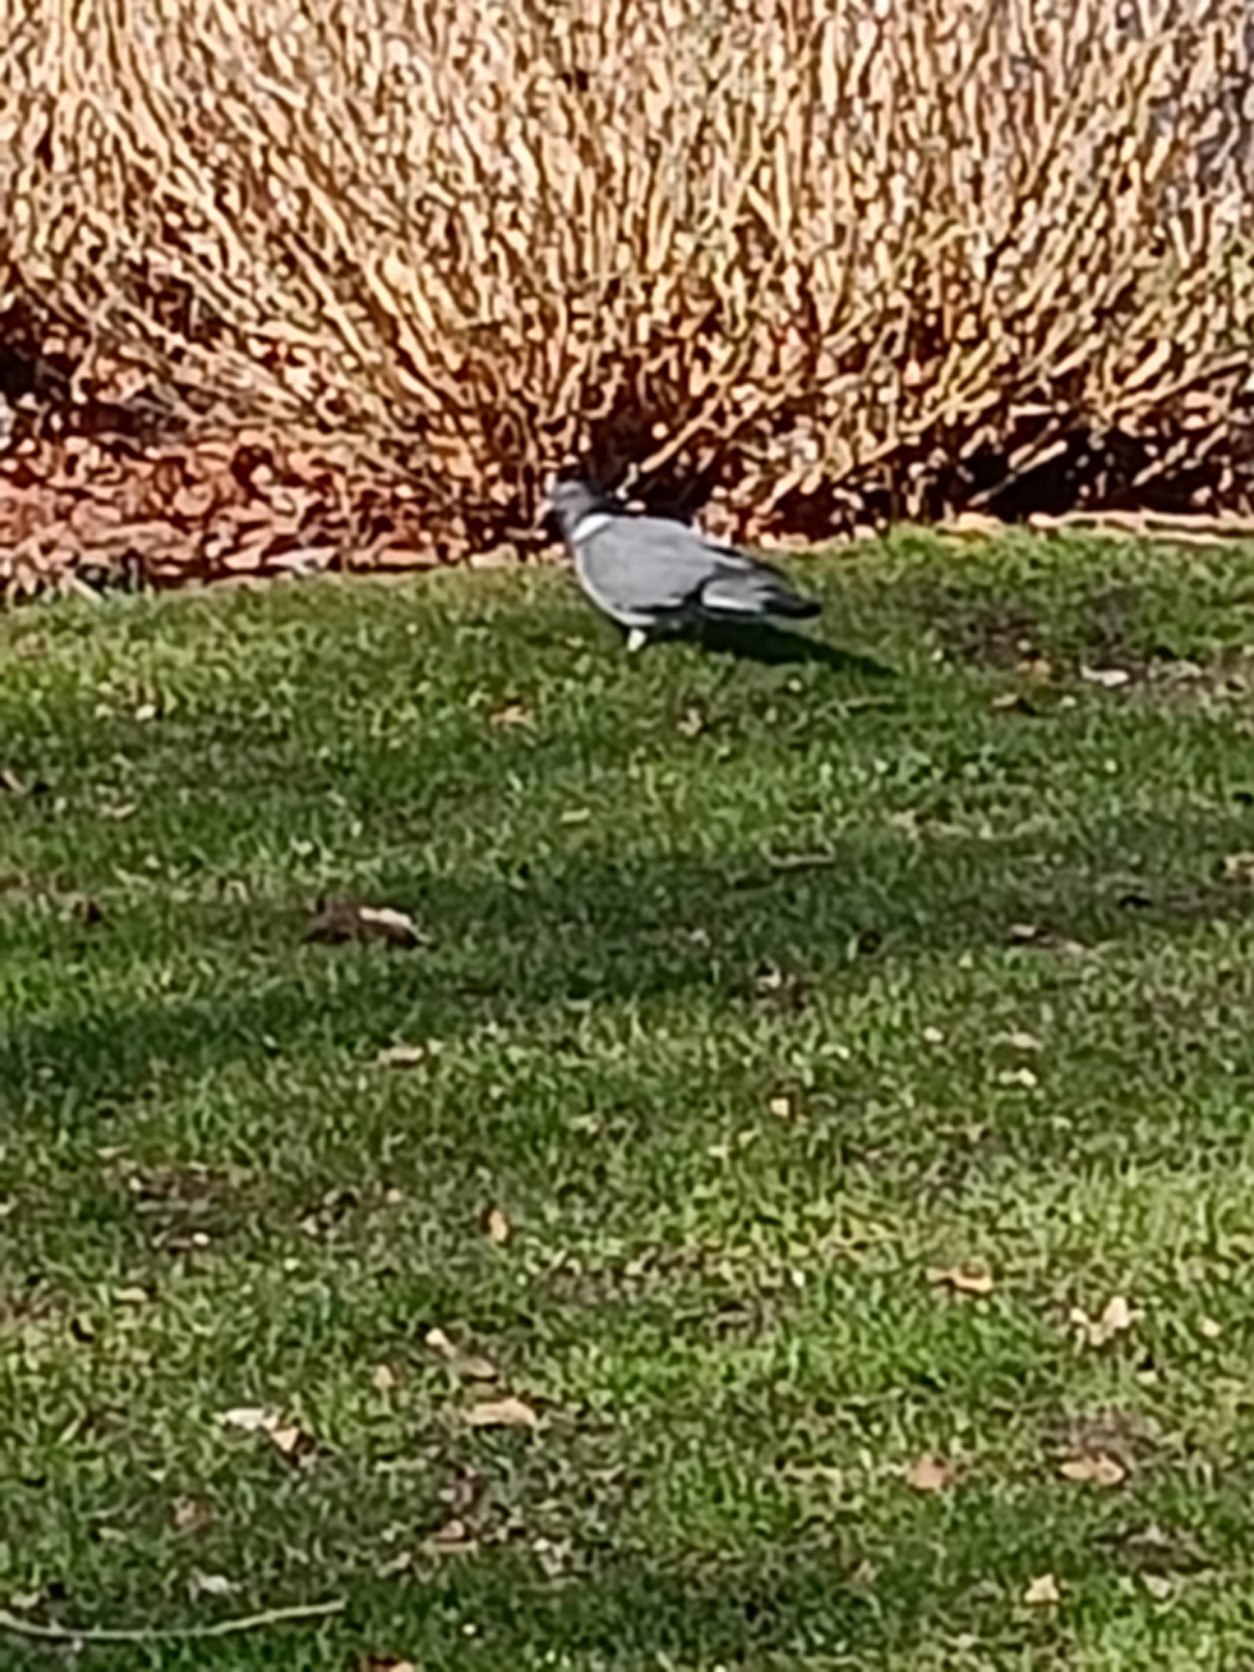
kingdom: Animalia
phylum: Chordata
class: Aves
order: Columbiformes
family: Columbidae
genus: Columba
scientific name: Columba palumbus
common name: Ringdue
